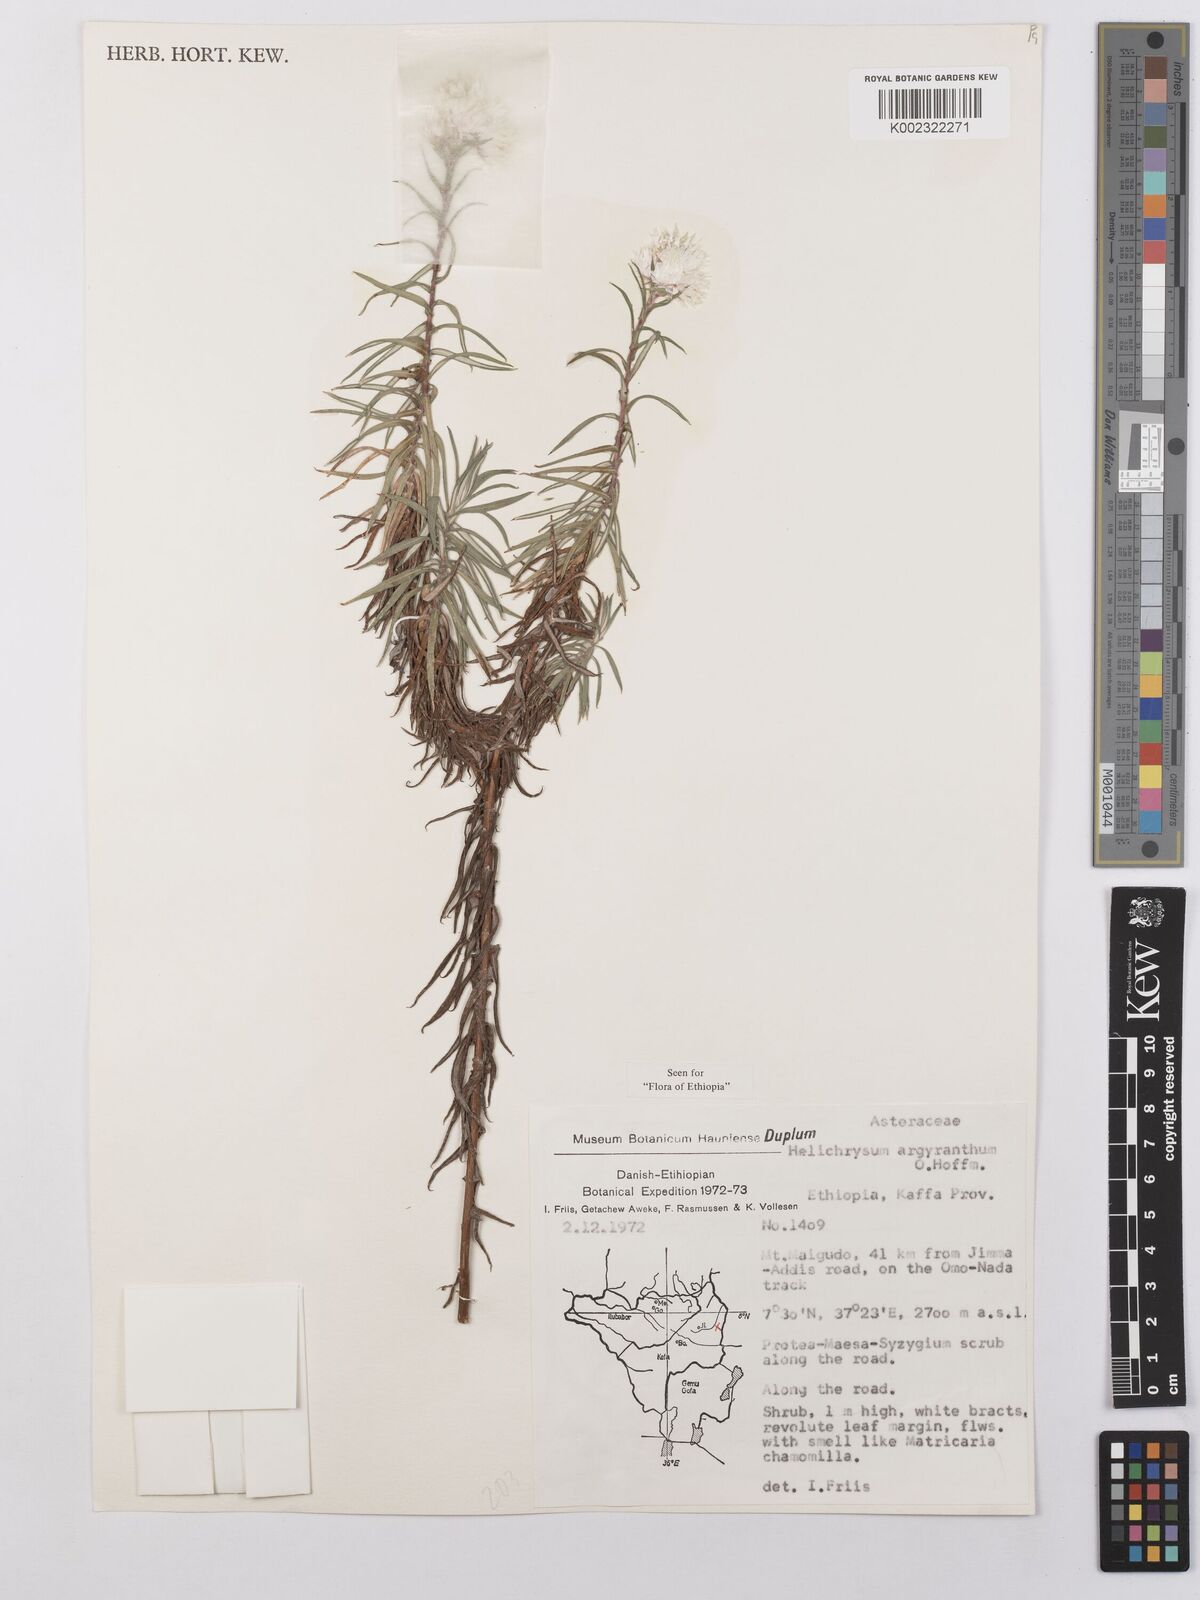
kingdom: Plantae
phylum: Tracheophyta
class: Magnoliopsida
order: Asterales
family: Asteraceae
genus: Helichrysum
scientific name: Helichrysum argyranthum
